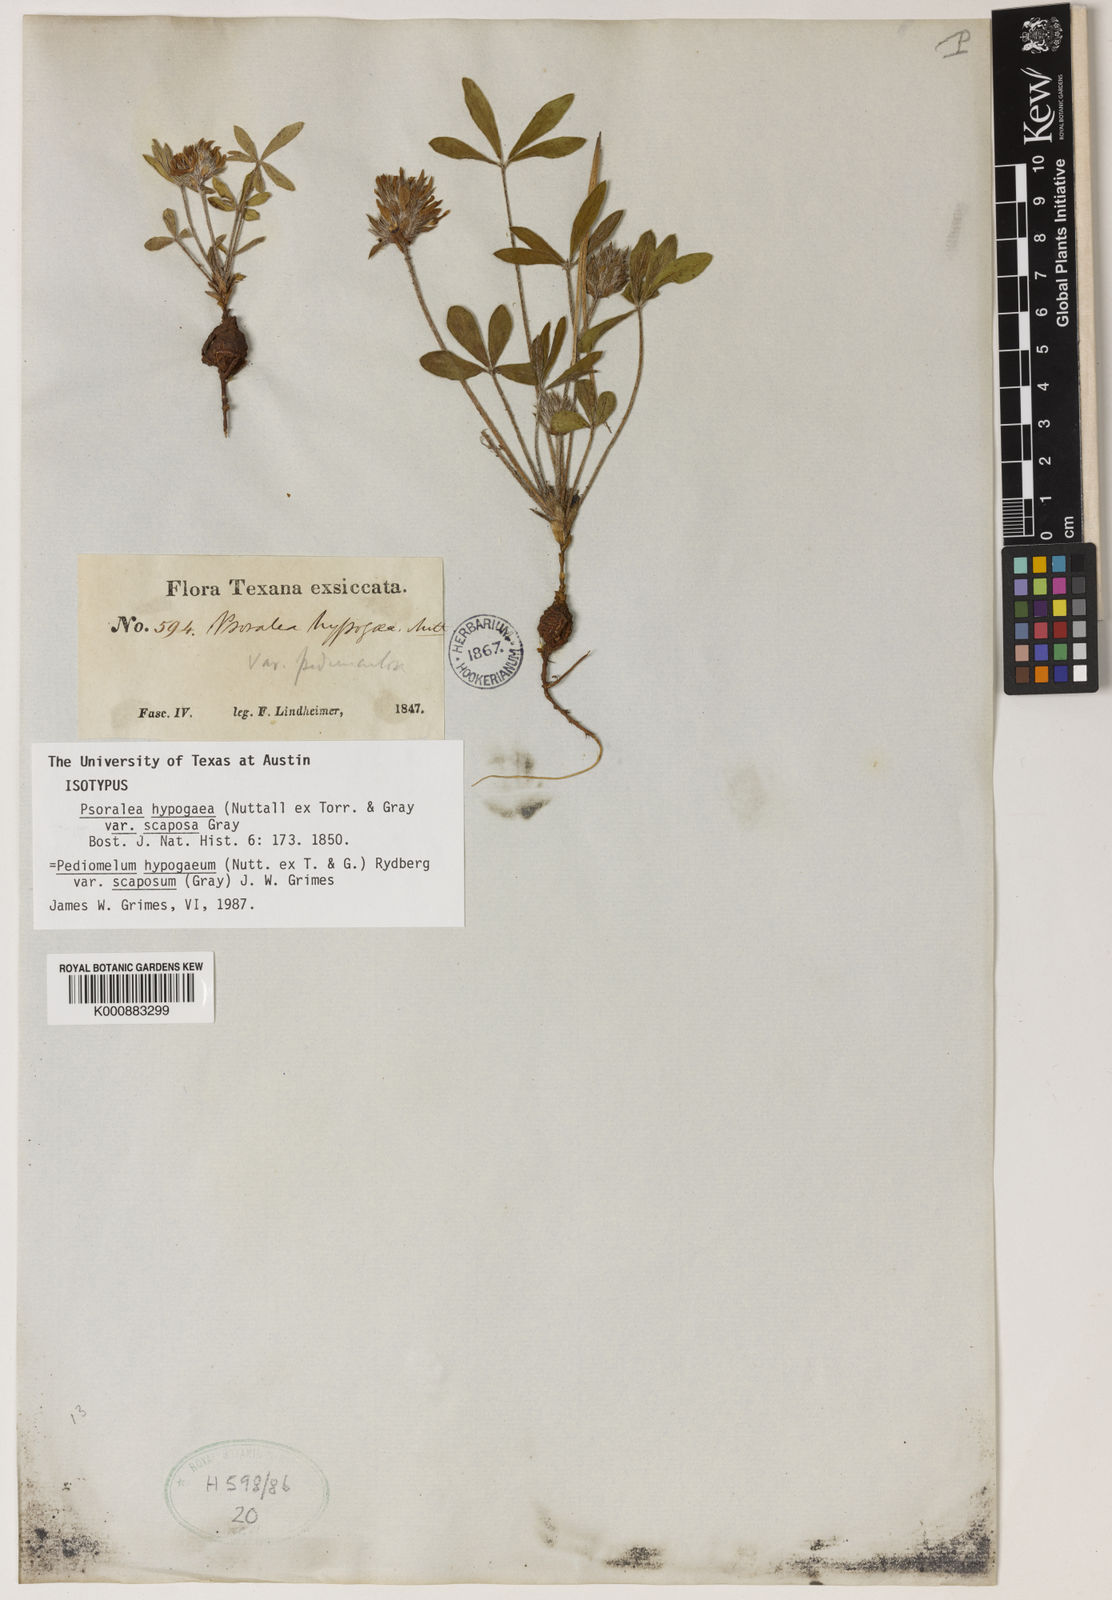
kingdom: Plantae
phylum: Tracheophyta
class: Magnoliopsida
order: Fabales
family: Fabaceae
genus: Pediomelum
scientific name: Pediomelum hypogaeum
